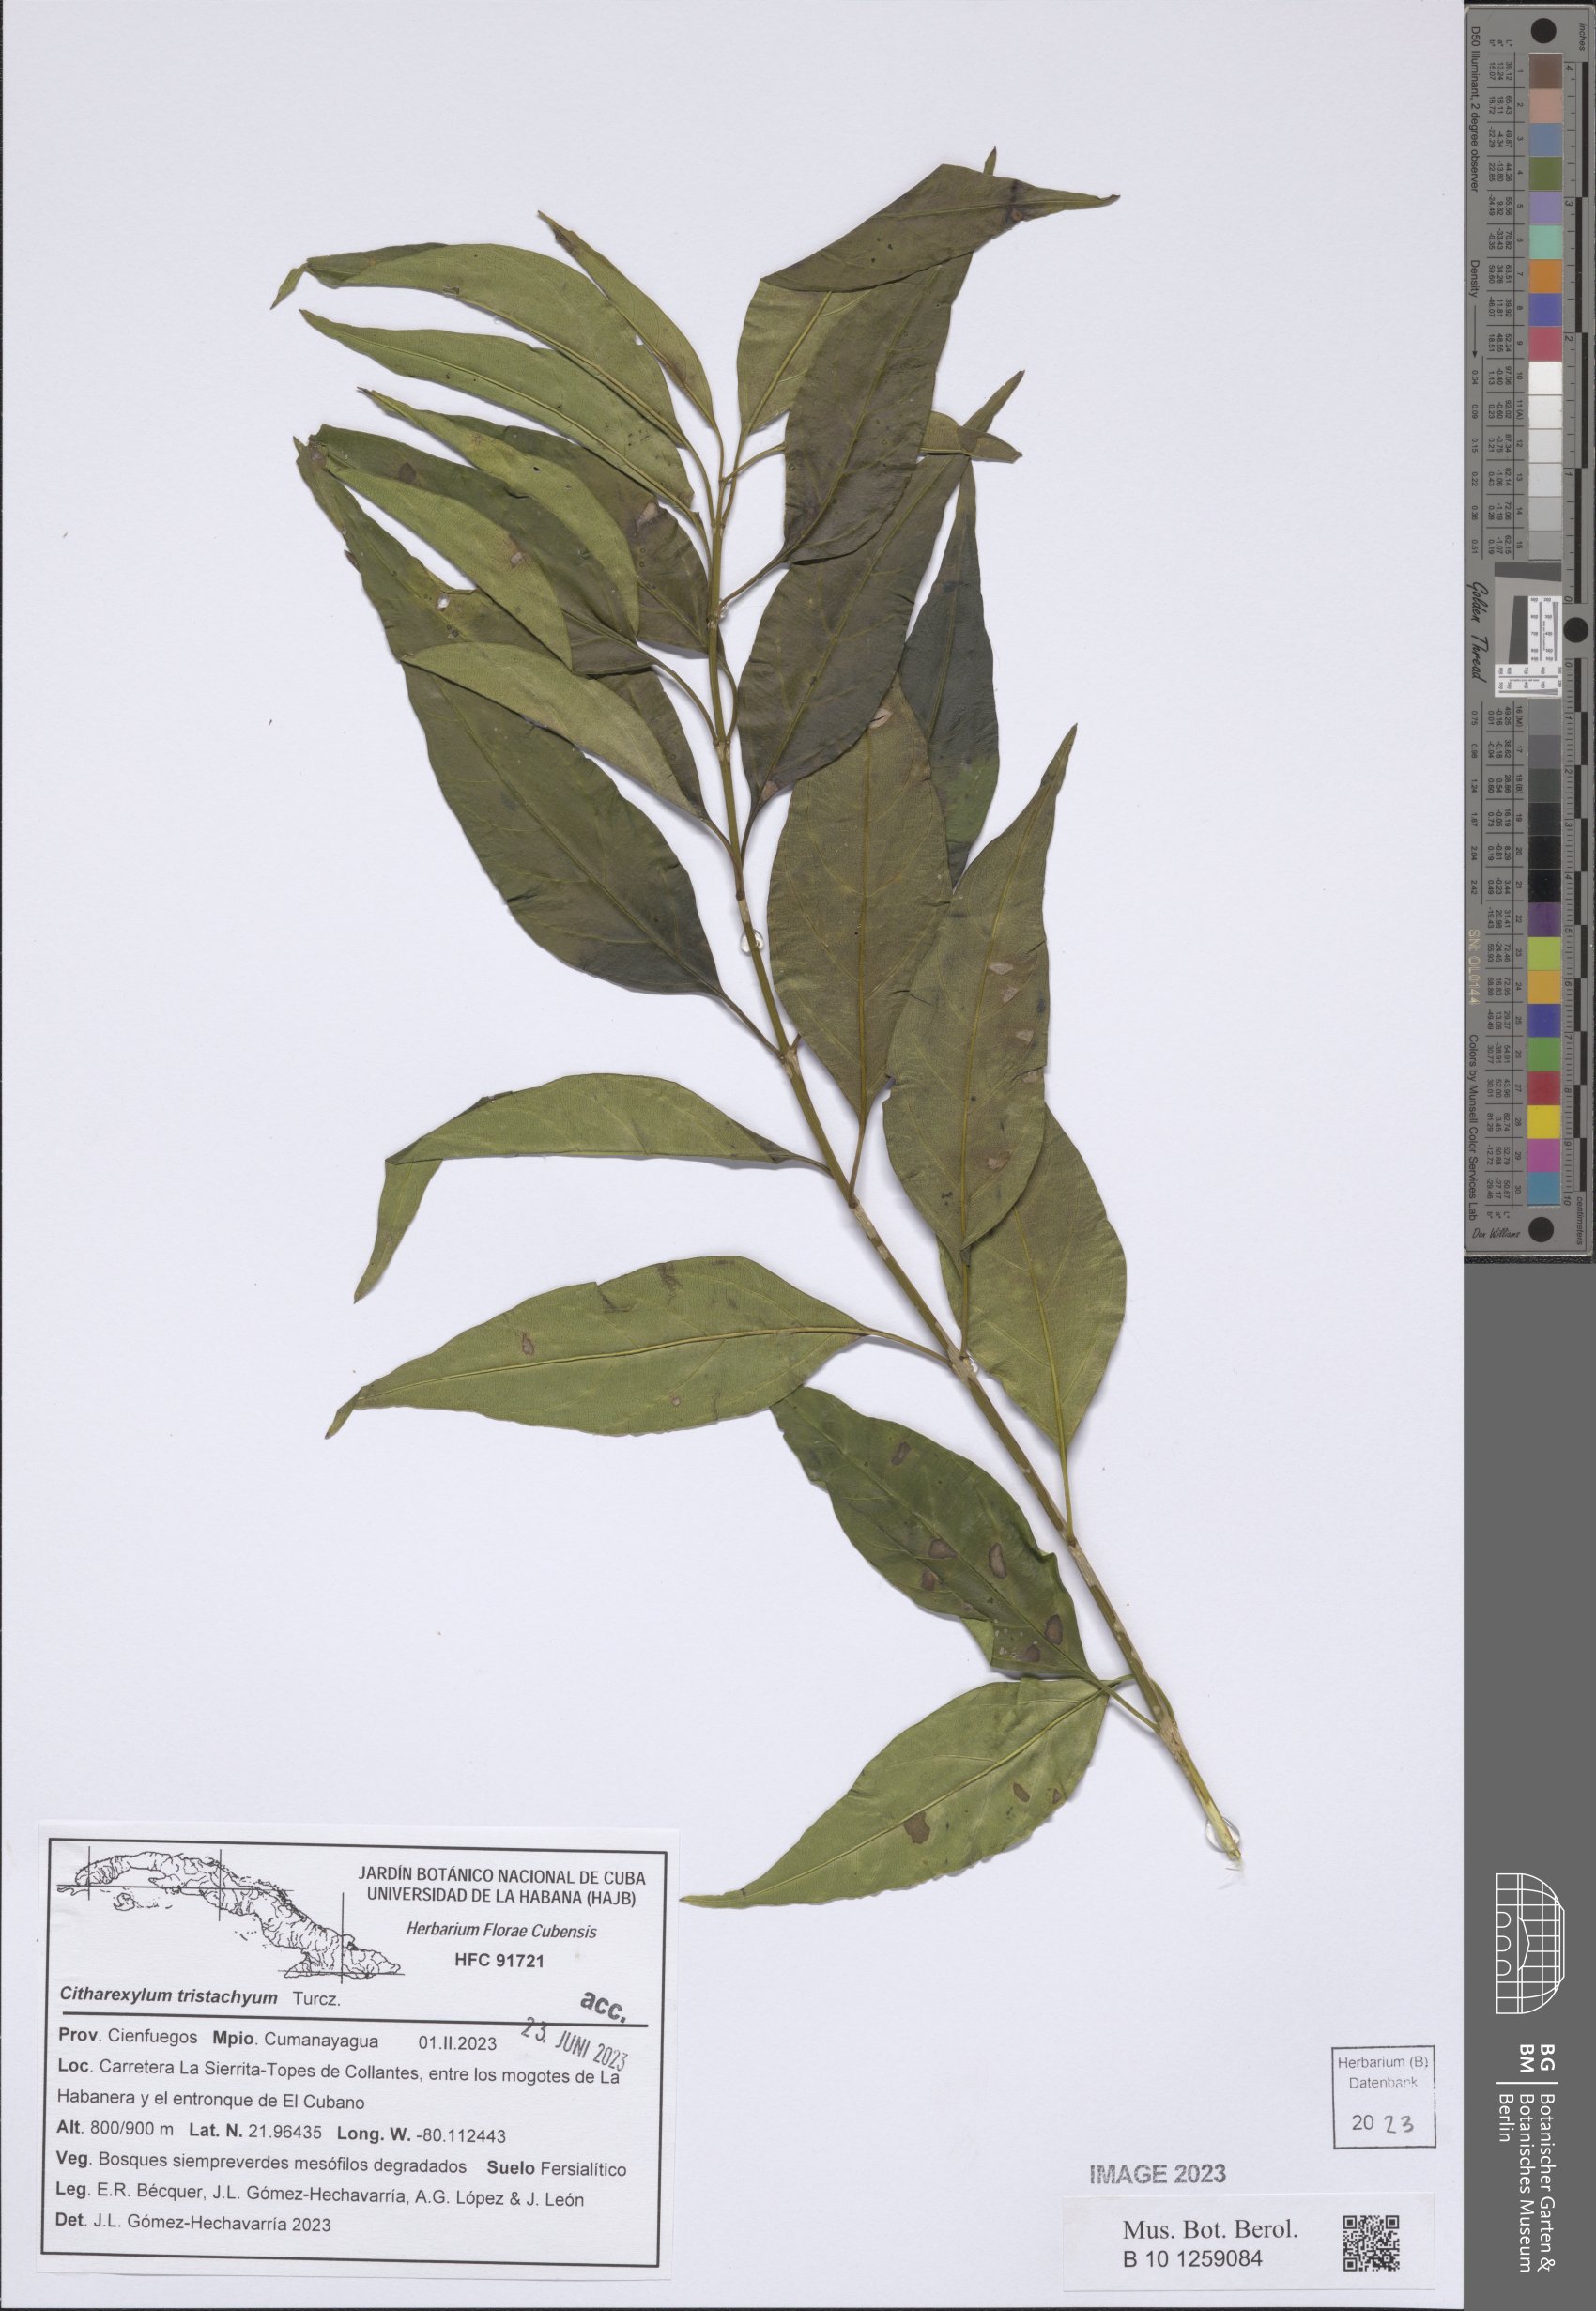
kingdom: Plantae
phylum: Tracheophyta
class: Magnoliopsida
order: Lamiales
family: Verbenaceae
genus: Citharexylum
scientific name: Citharexylum tristachyum
